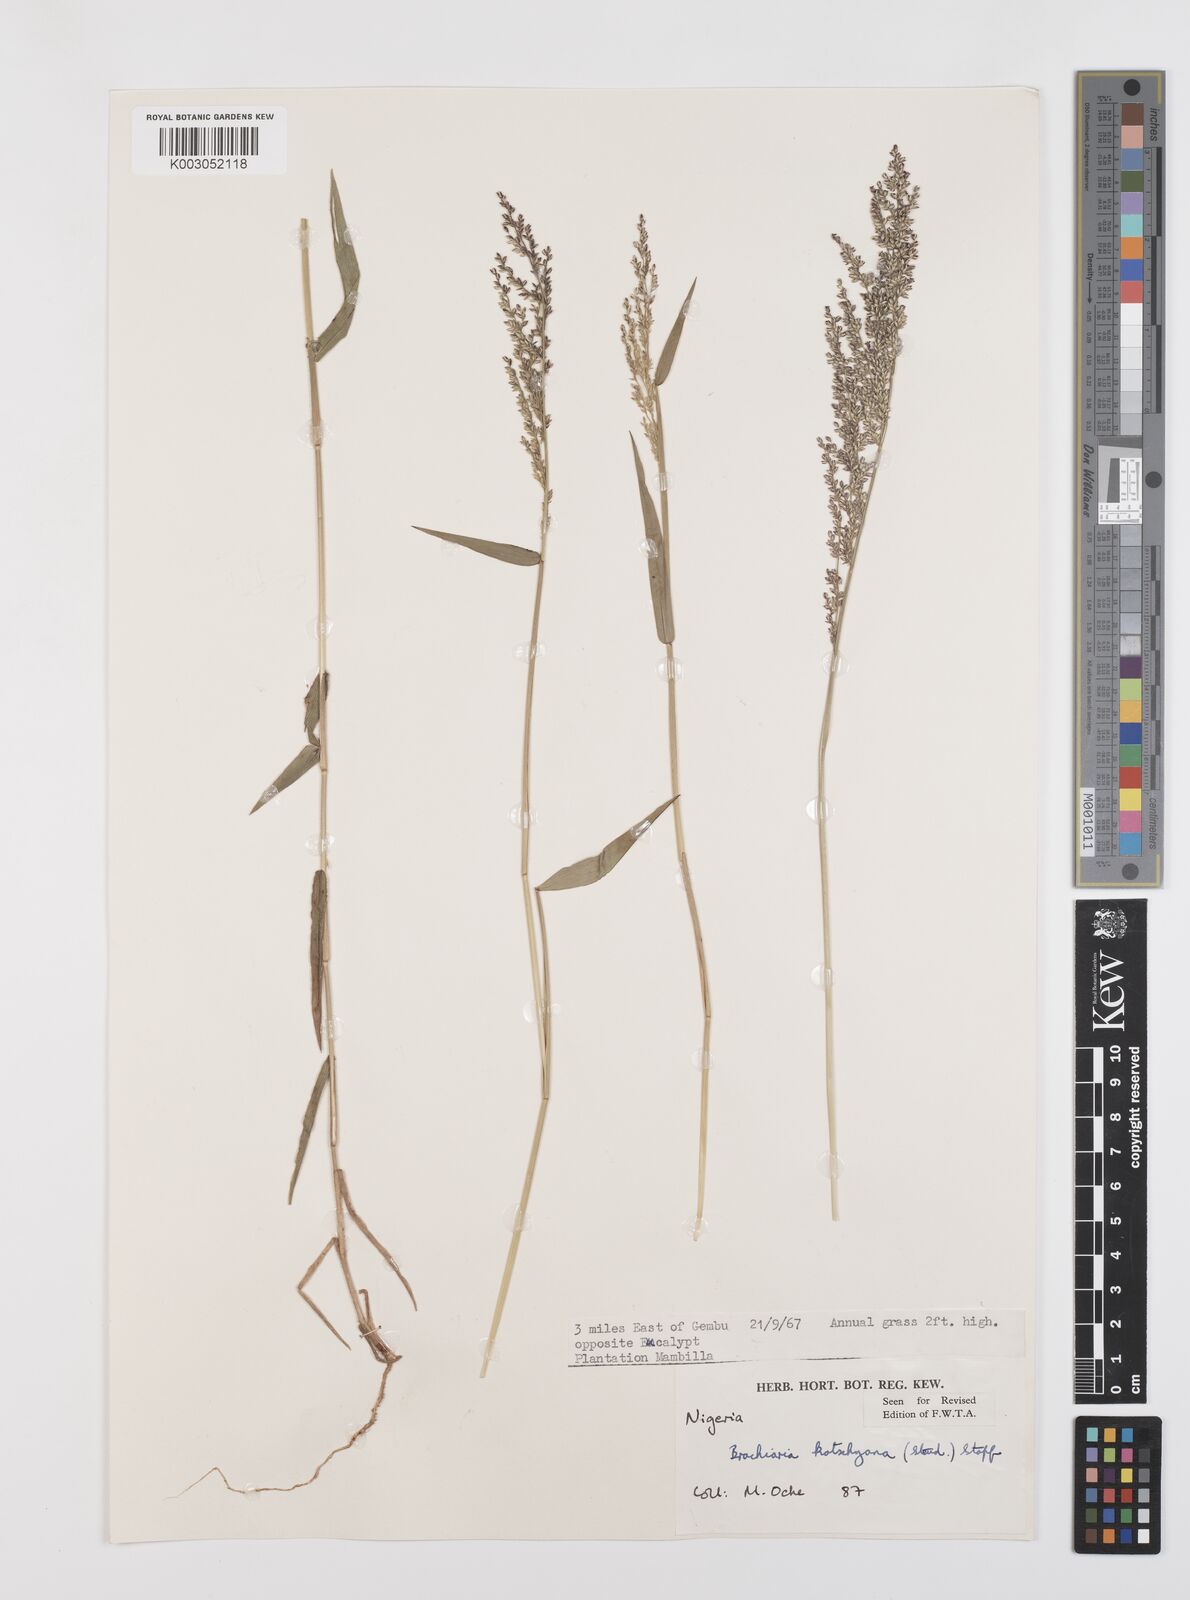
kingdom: Plantae
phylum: Tracheophyta
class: Liliopsida
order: Poales
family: Poaceae
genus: Urochloa
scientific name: Urochloa comata
